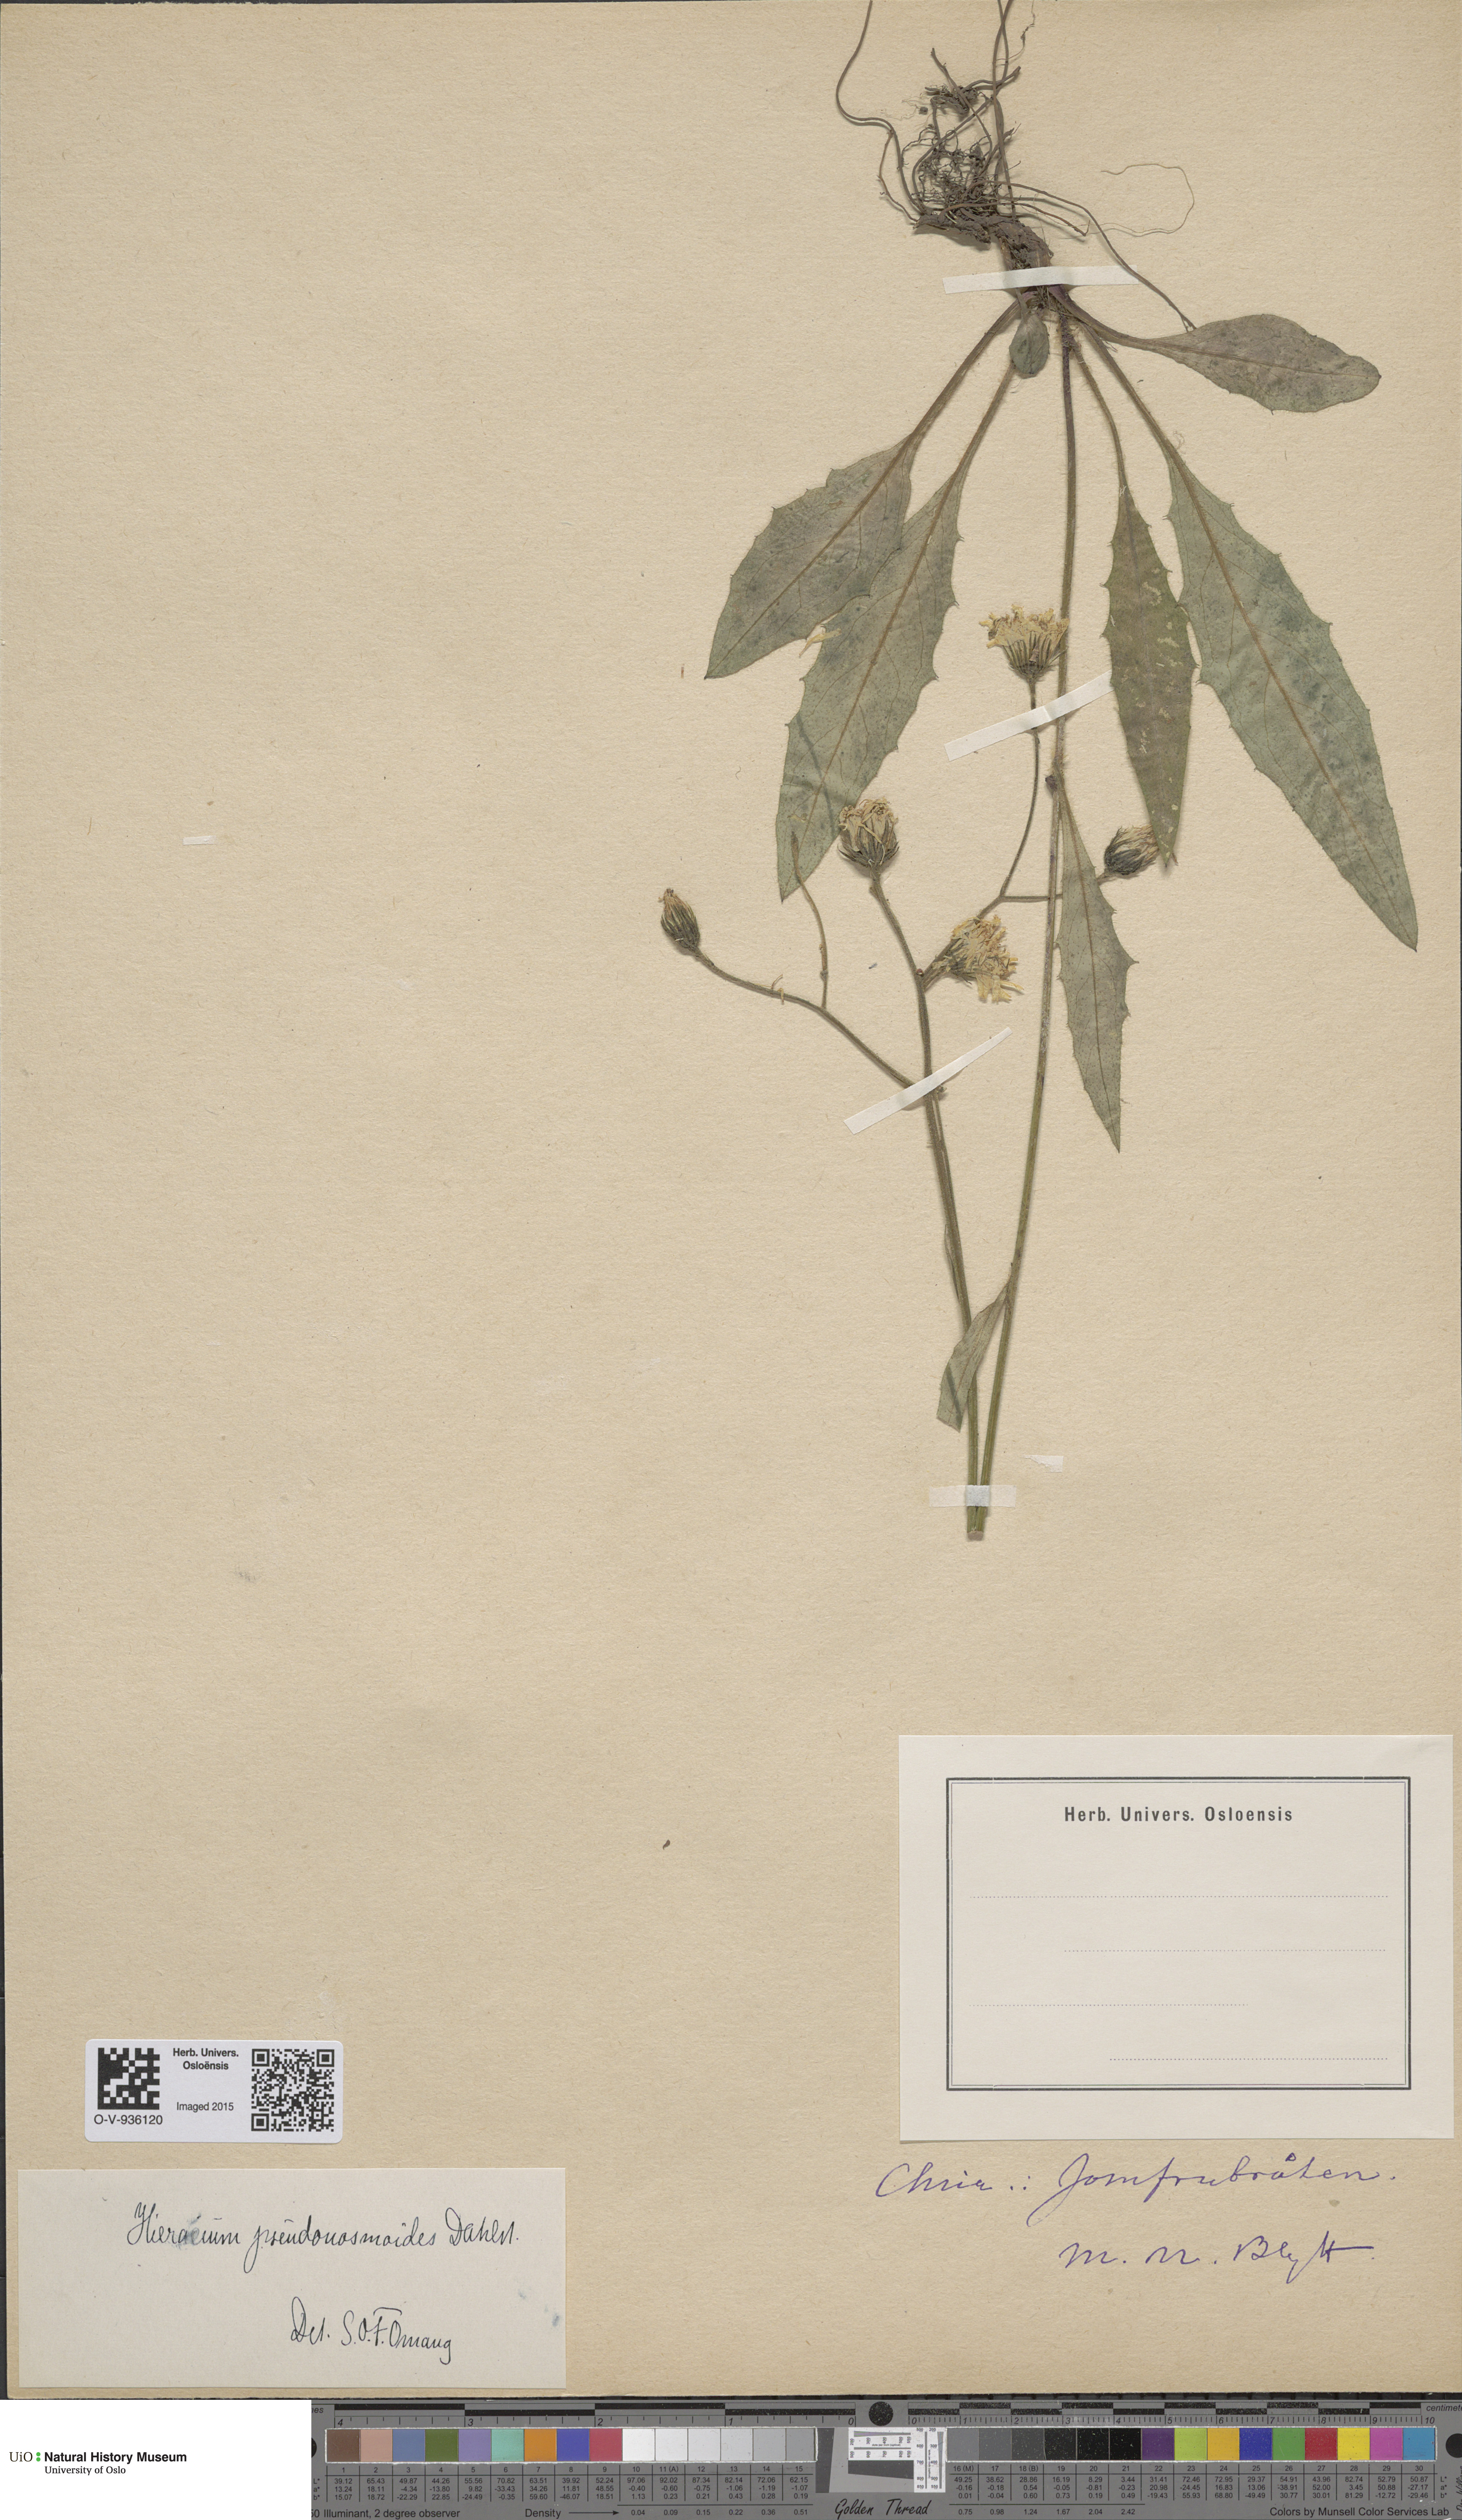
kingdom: Plantae
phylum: Tracheophyta
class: Magnoliopsida
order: Asterales
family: Asteraceae
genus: Hieracium
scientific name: Hieracium saxifragum
